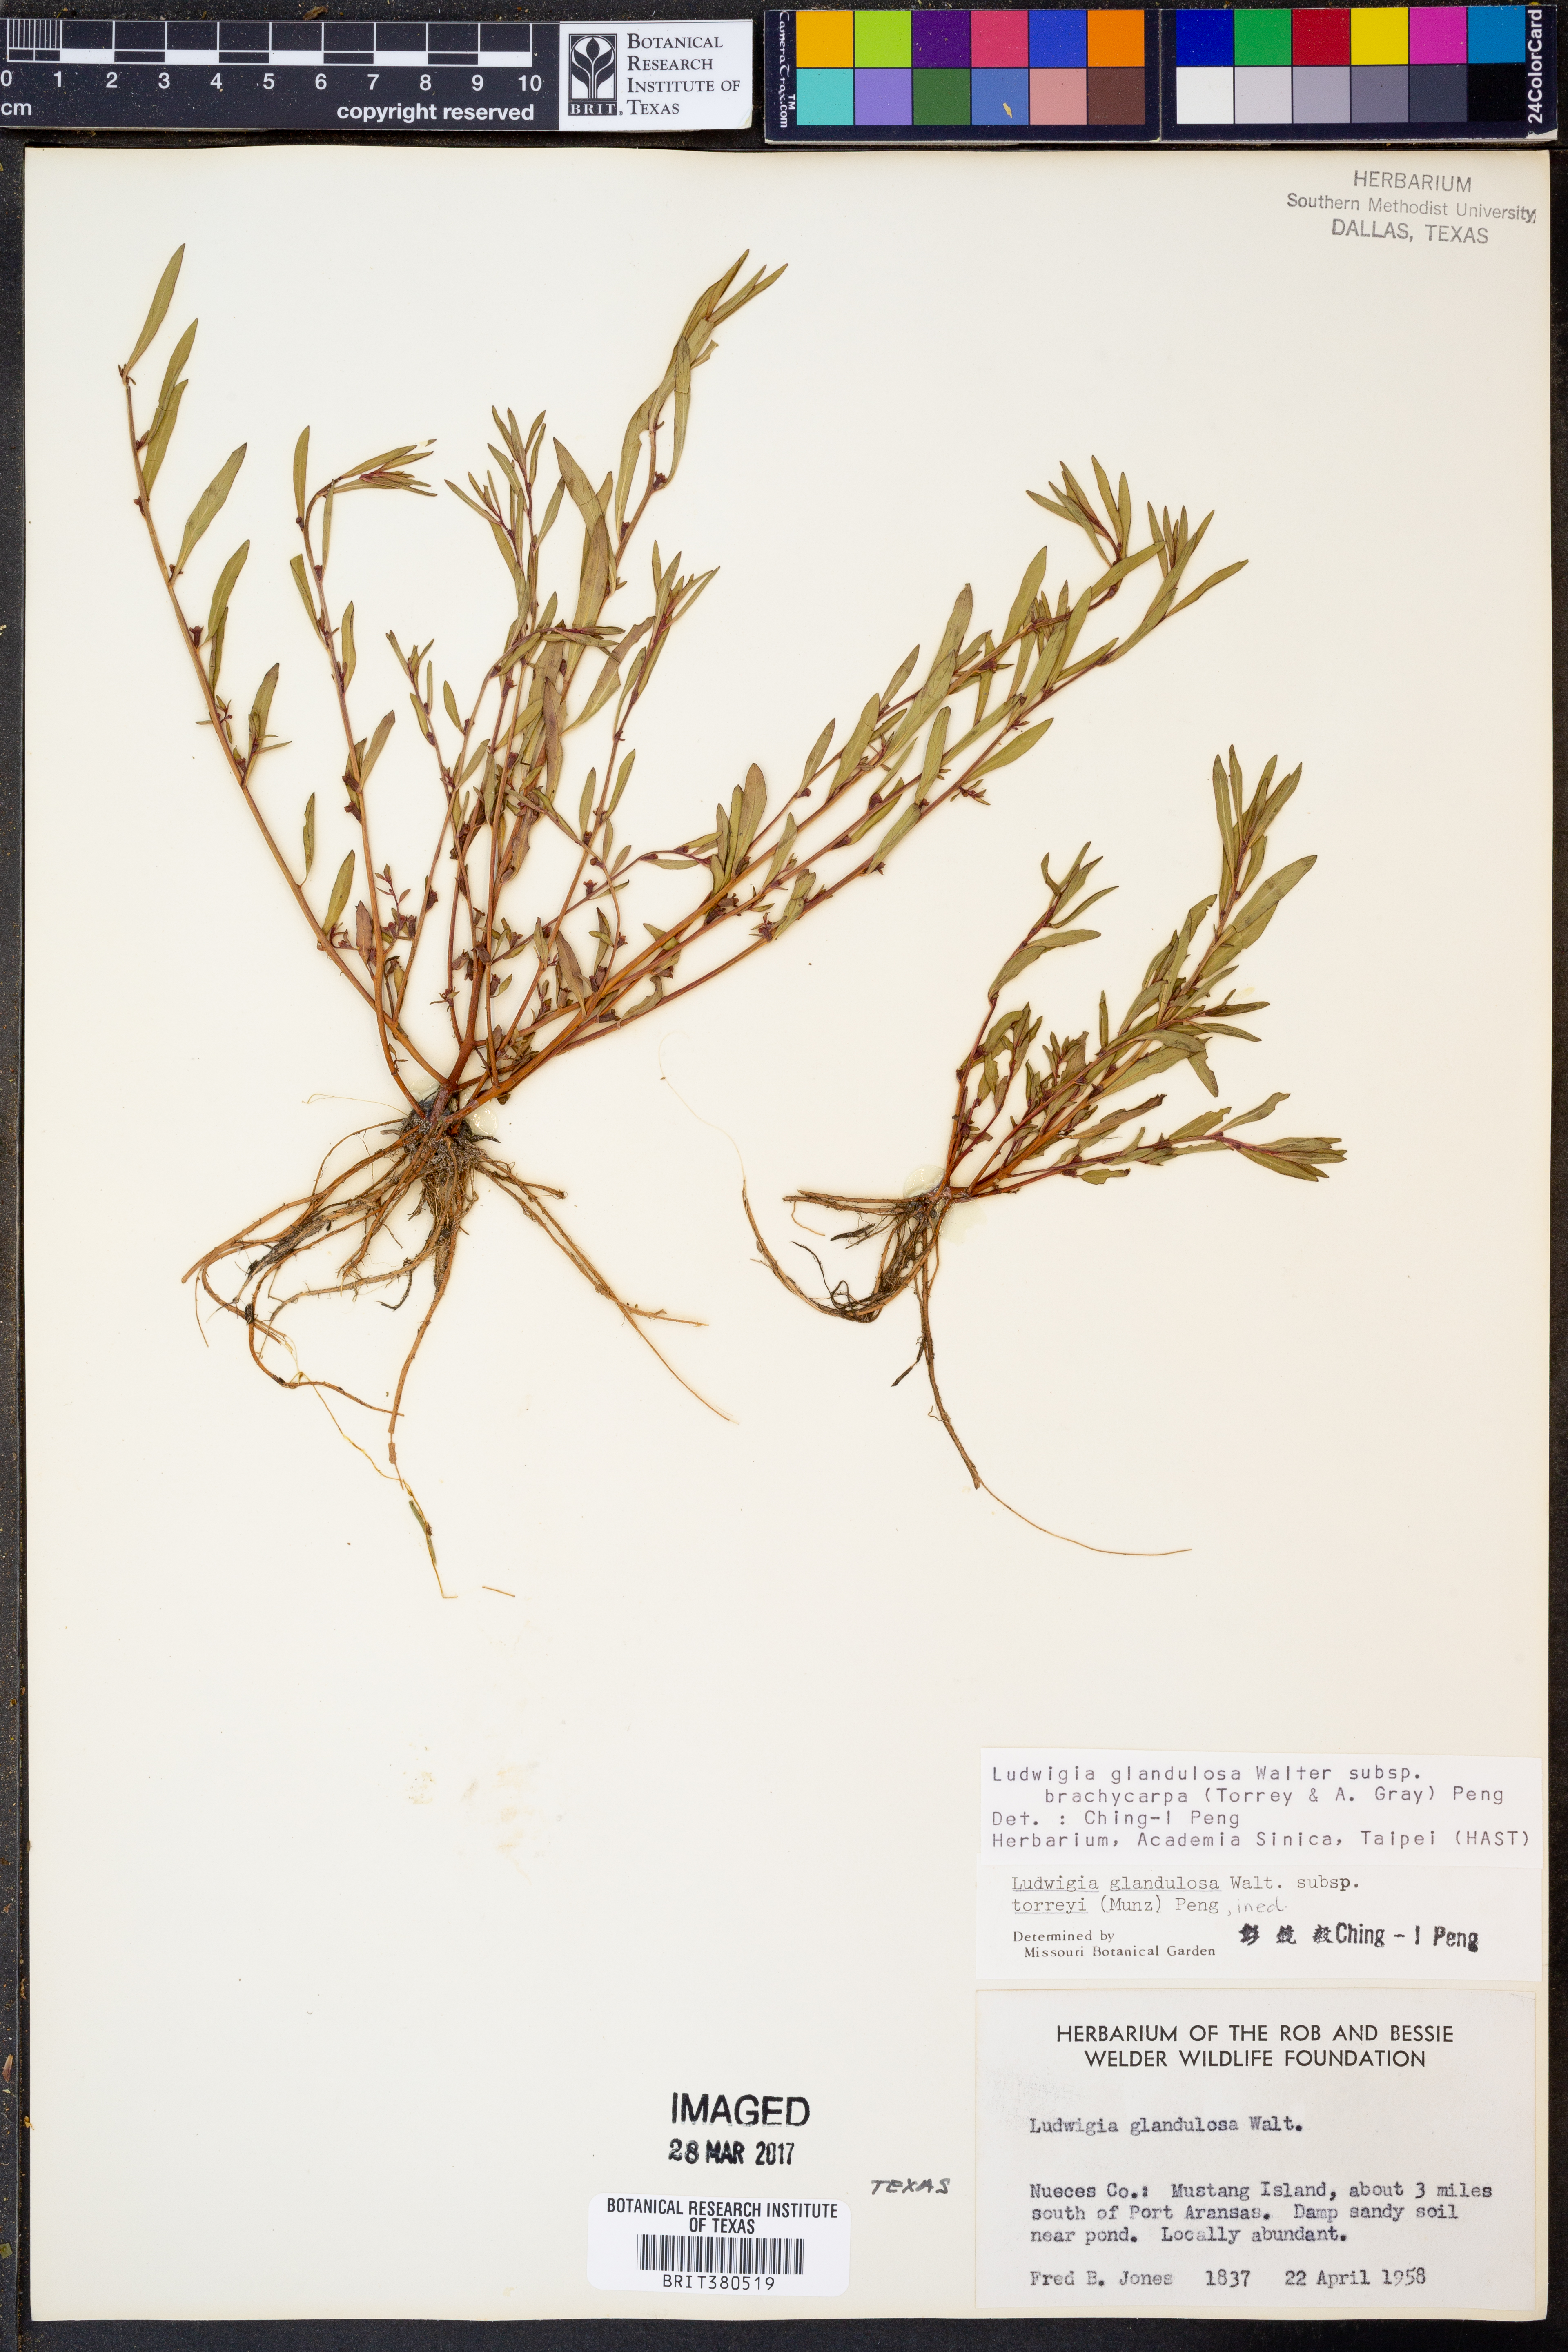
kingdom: Plantae
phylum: Tracheophyta
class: Magnoliopsida
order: Myrtales
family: Onagraceae
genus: Ludwigia
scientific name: Ludwigia glandulosa
